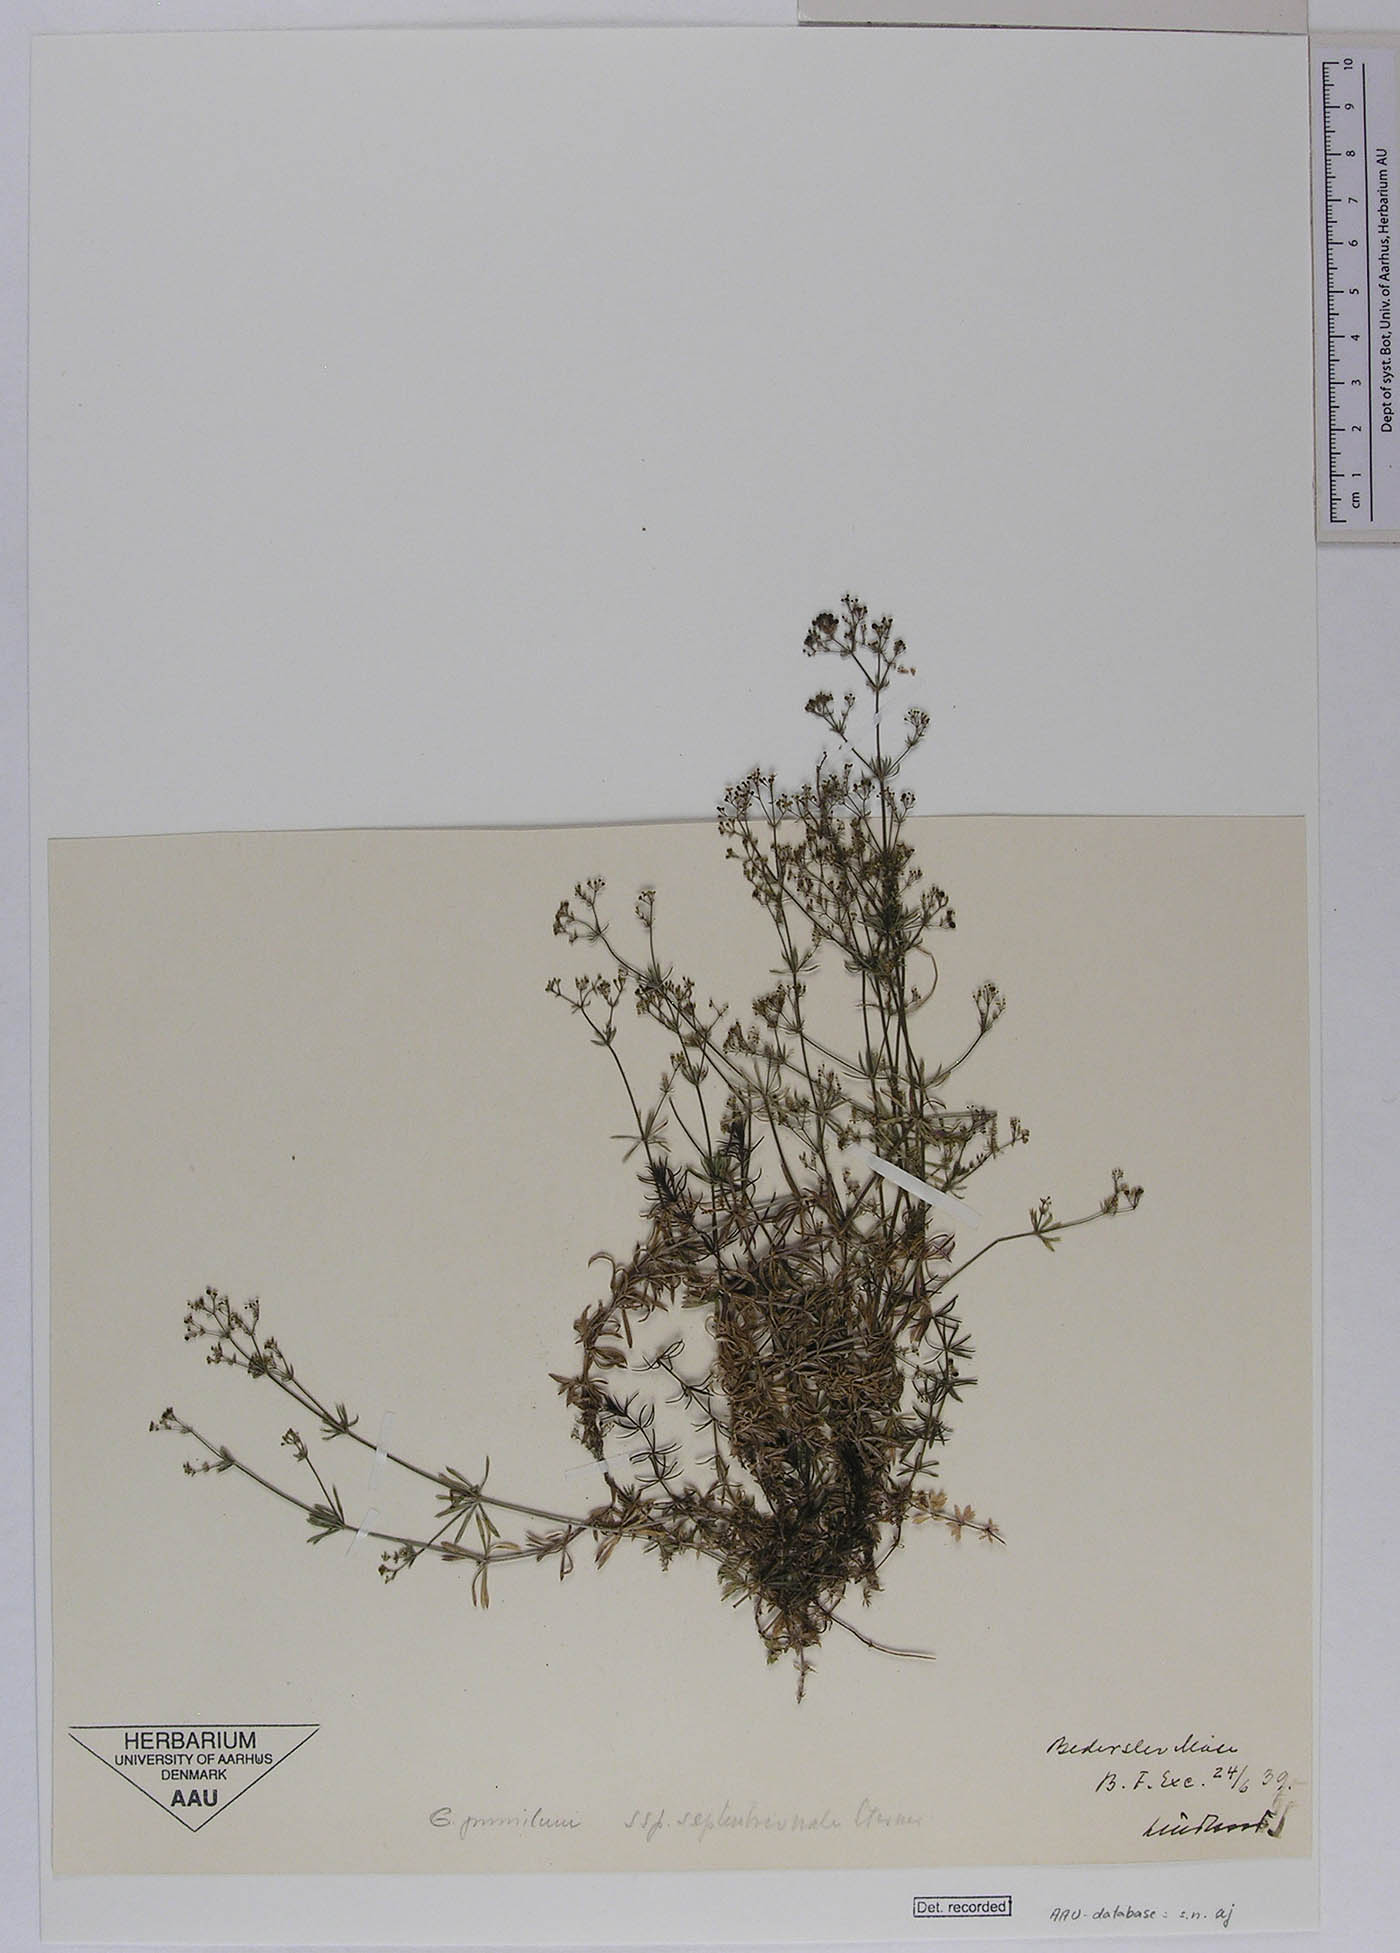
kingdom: Plantae
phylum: Tracheophyta
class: Magnoliopsida
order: Gentianales
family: Rubiaceae
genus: Galium
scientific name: Galium pusillum
